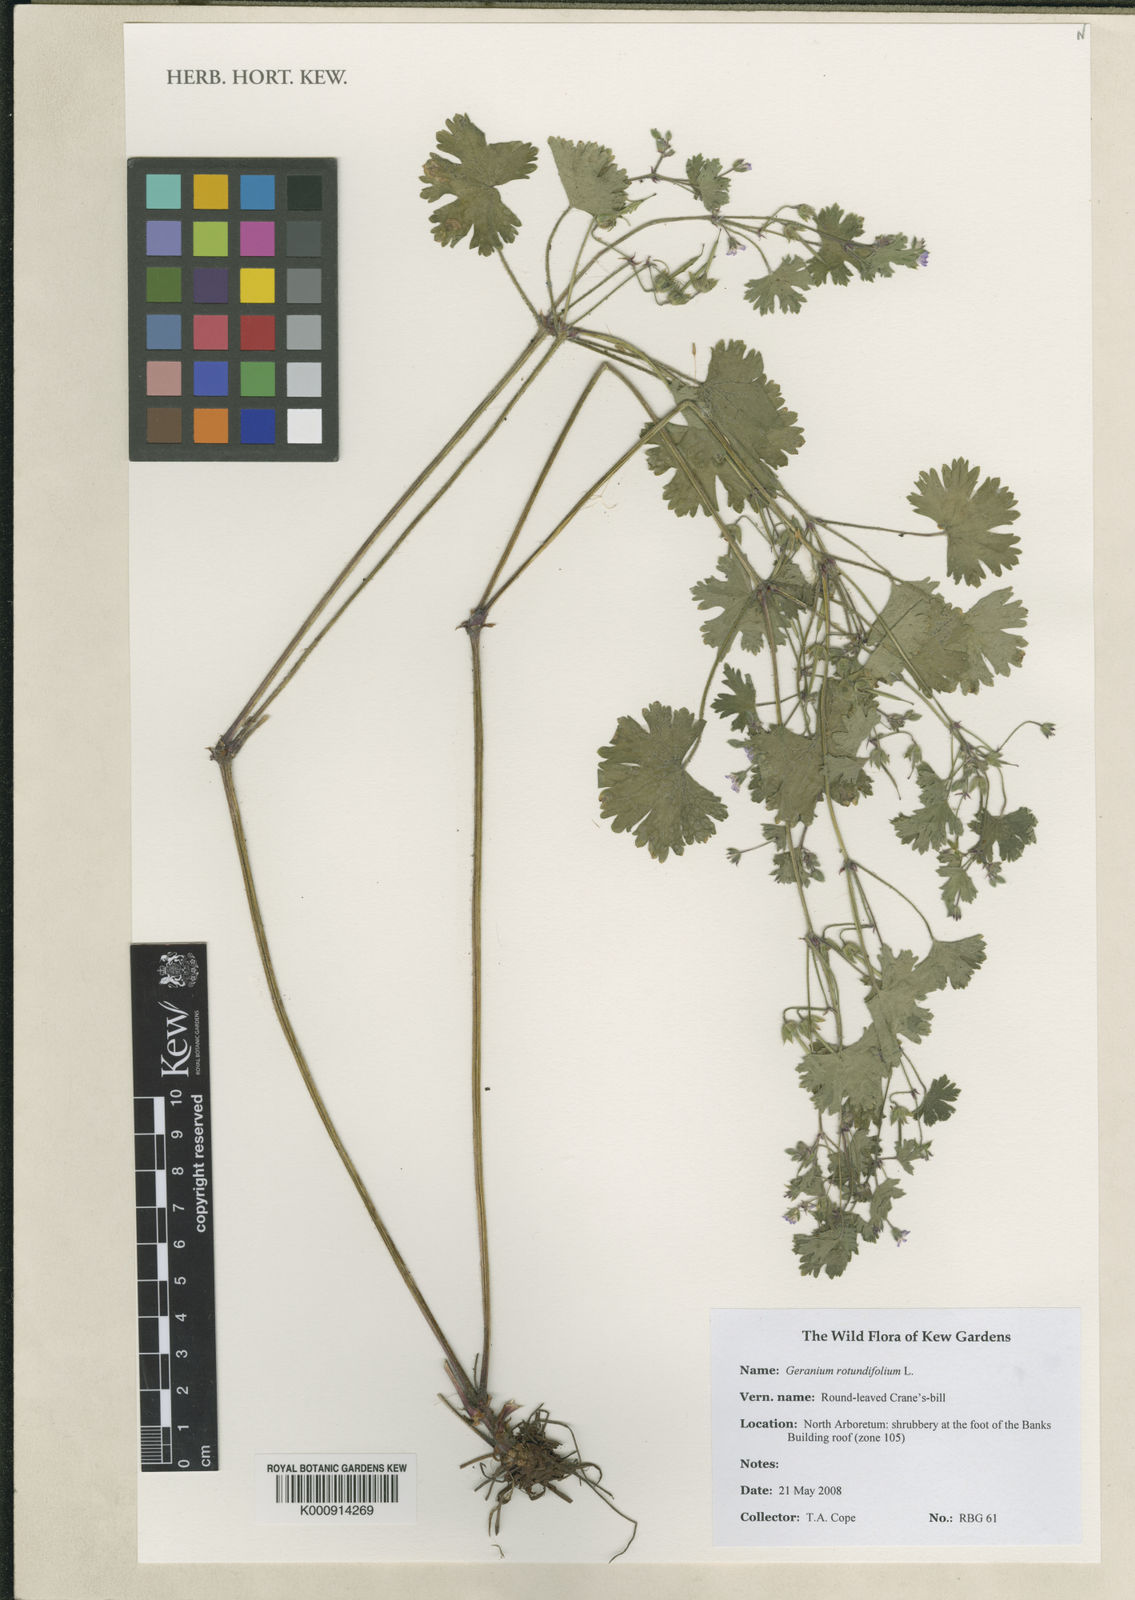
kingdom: Plantae
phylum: Tracheophyta
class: Magnoliopsida
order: Geraniales
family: Geraniaceae
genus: Geranium
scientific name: Geranium rotundifolium
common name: Round-leaved crane's-bill
